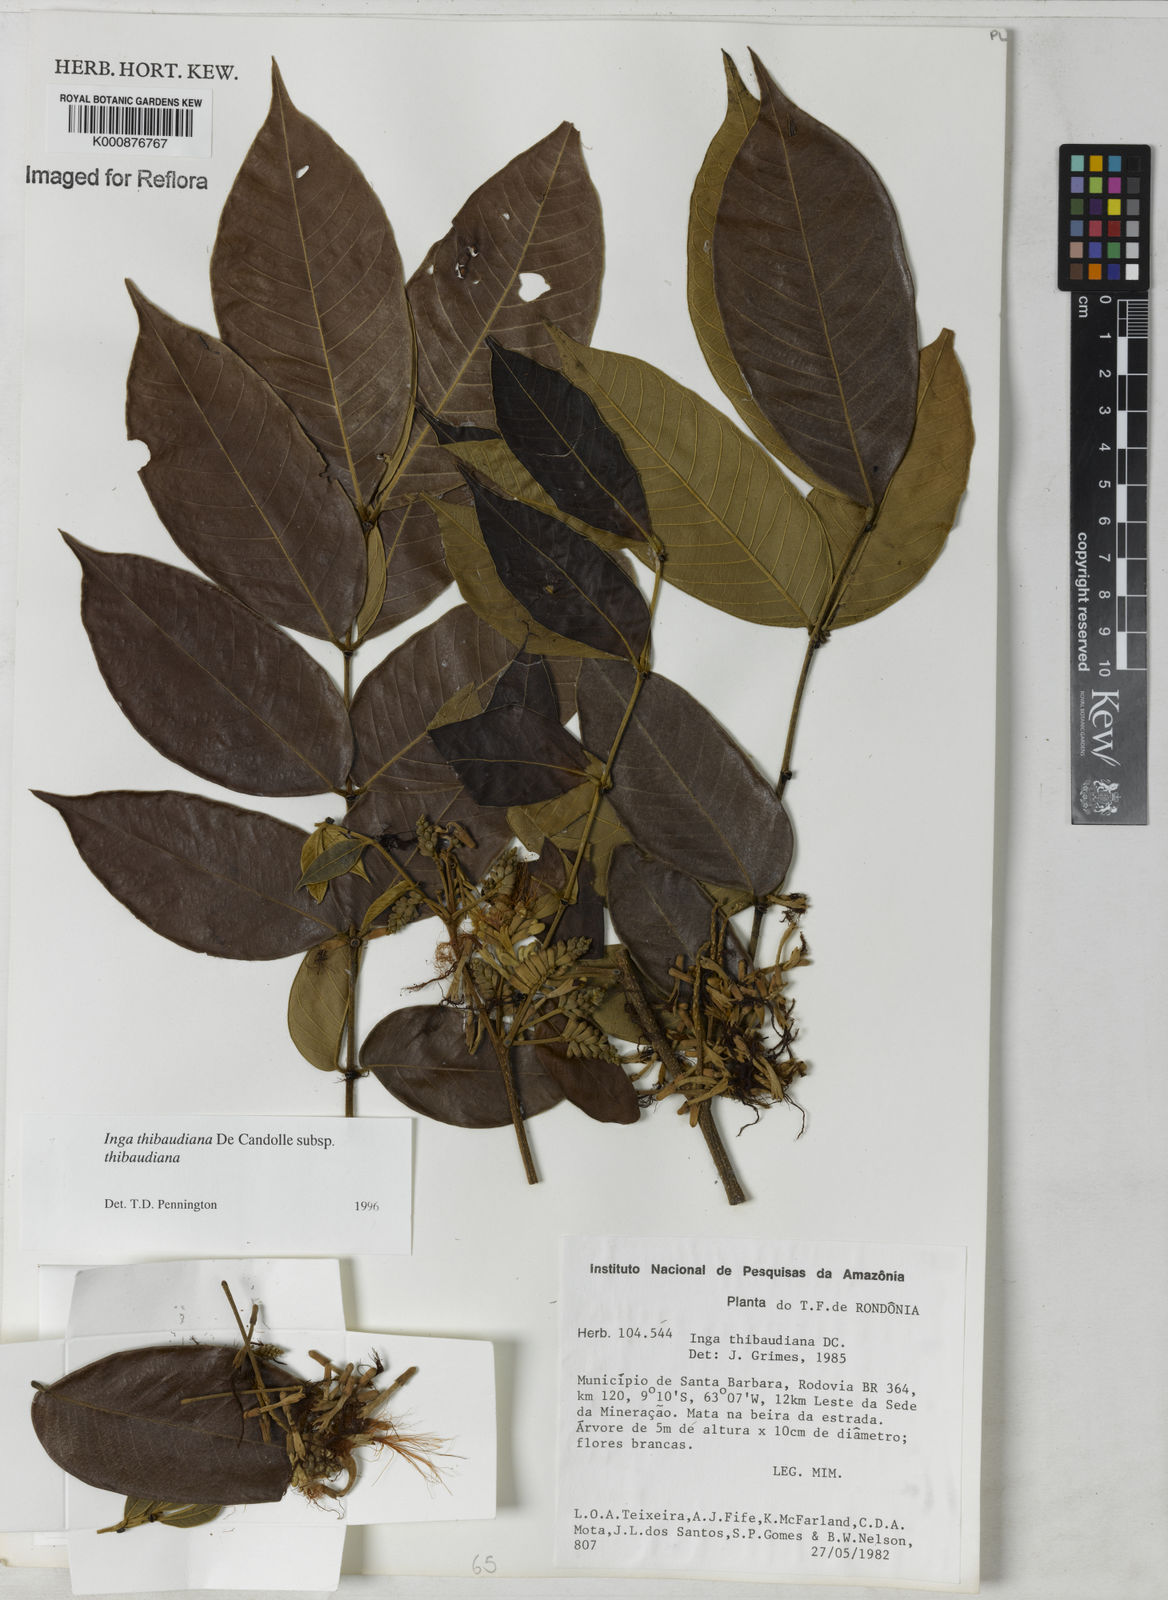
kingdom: Plantae
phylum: Tracheophyta
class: Magnoliopsida
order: Fabales
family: Fabaceae
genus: Inga
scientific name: Inga thibaudiana
